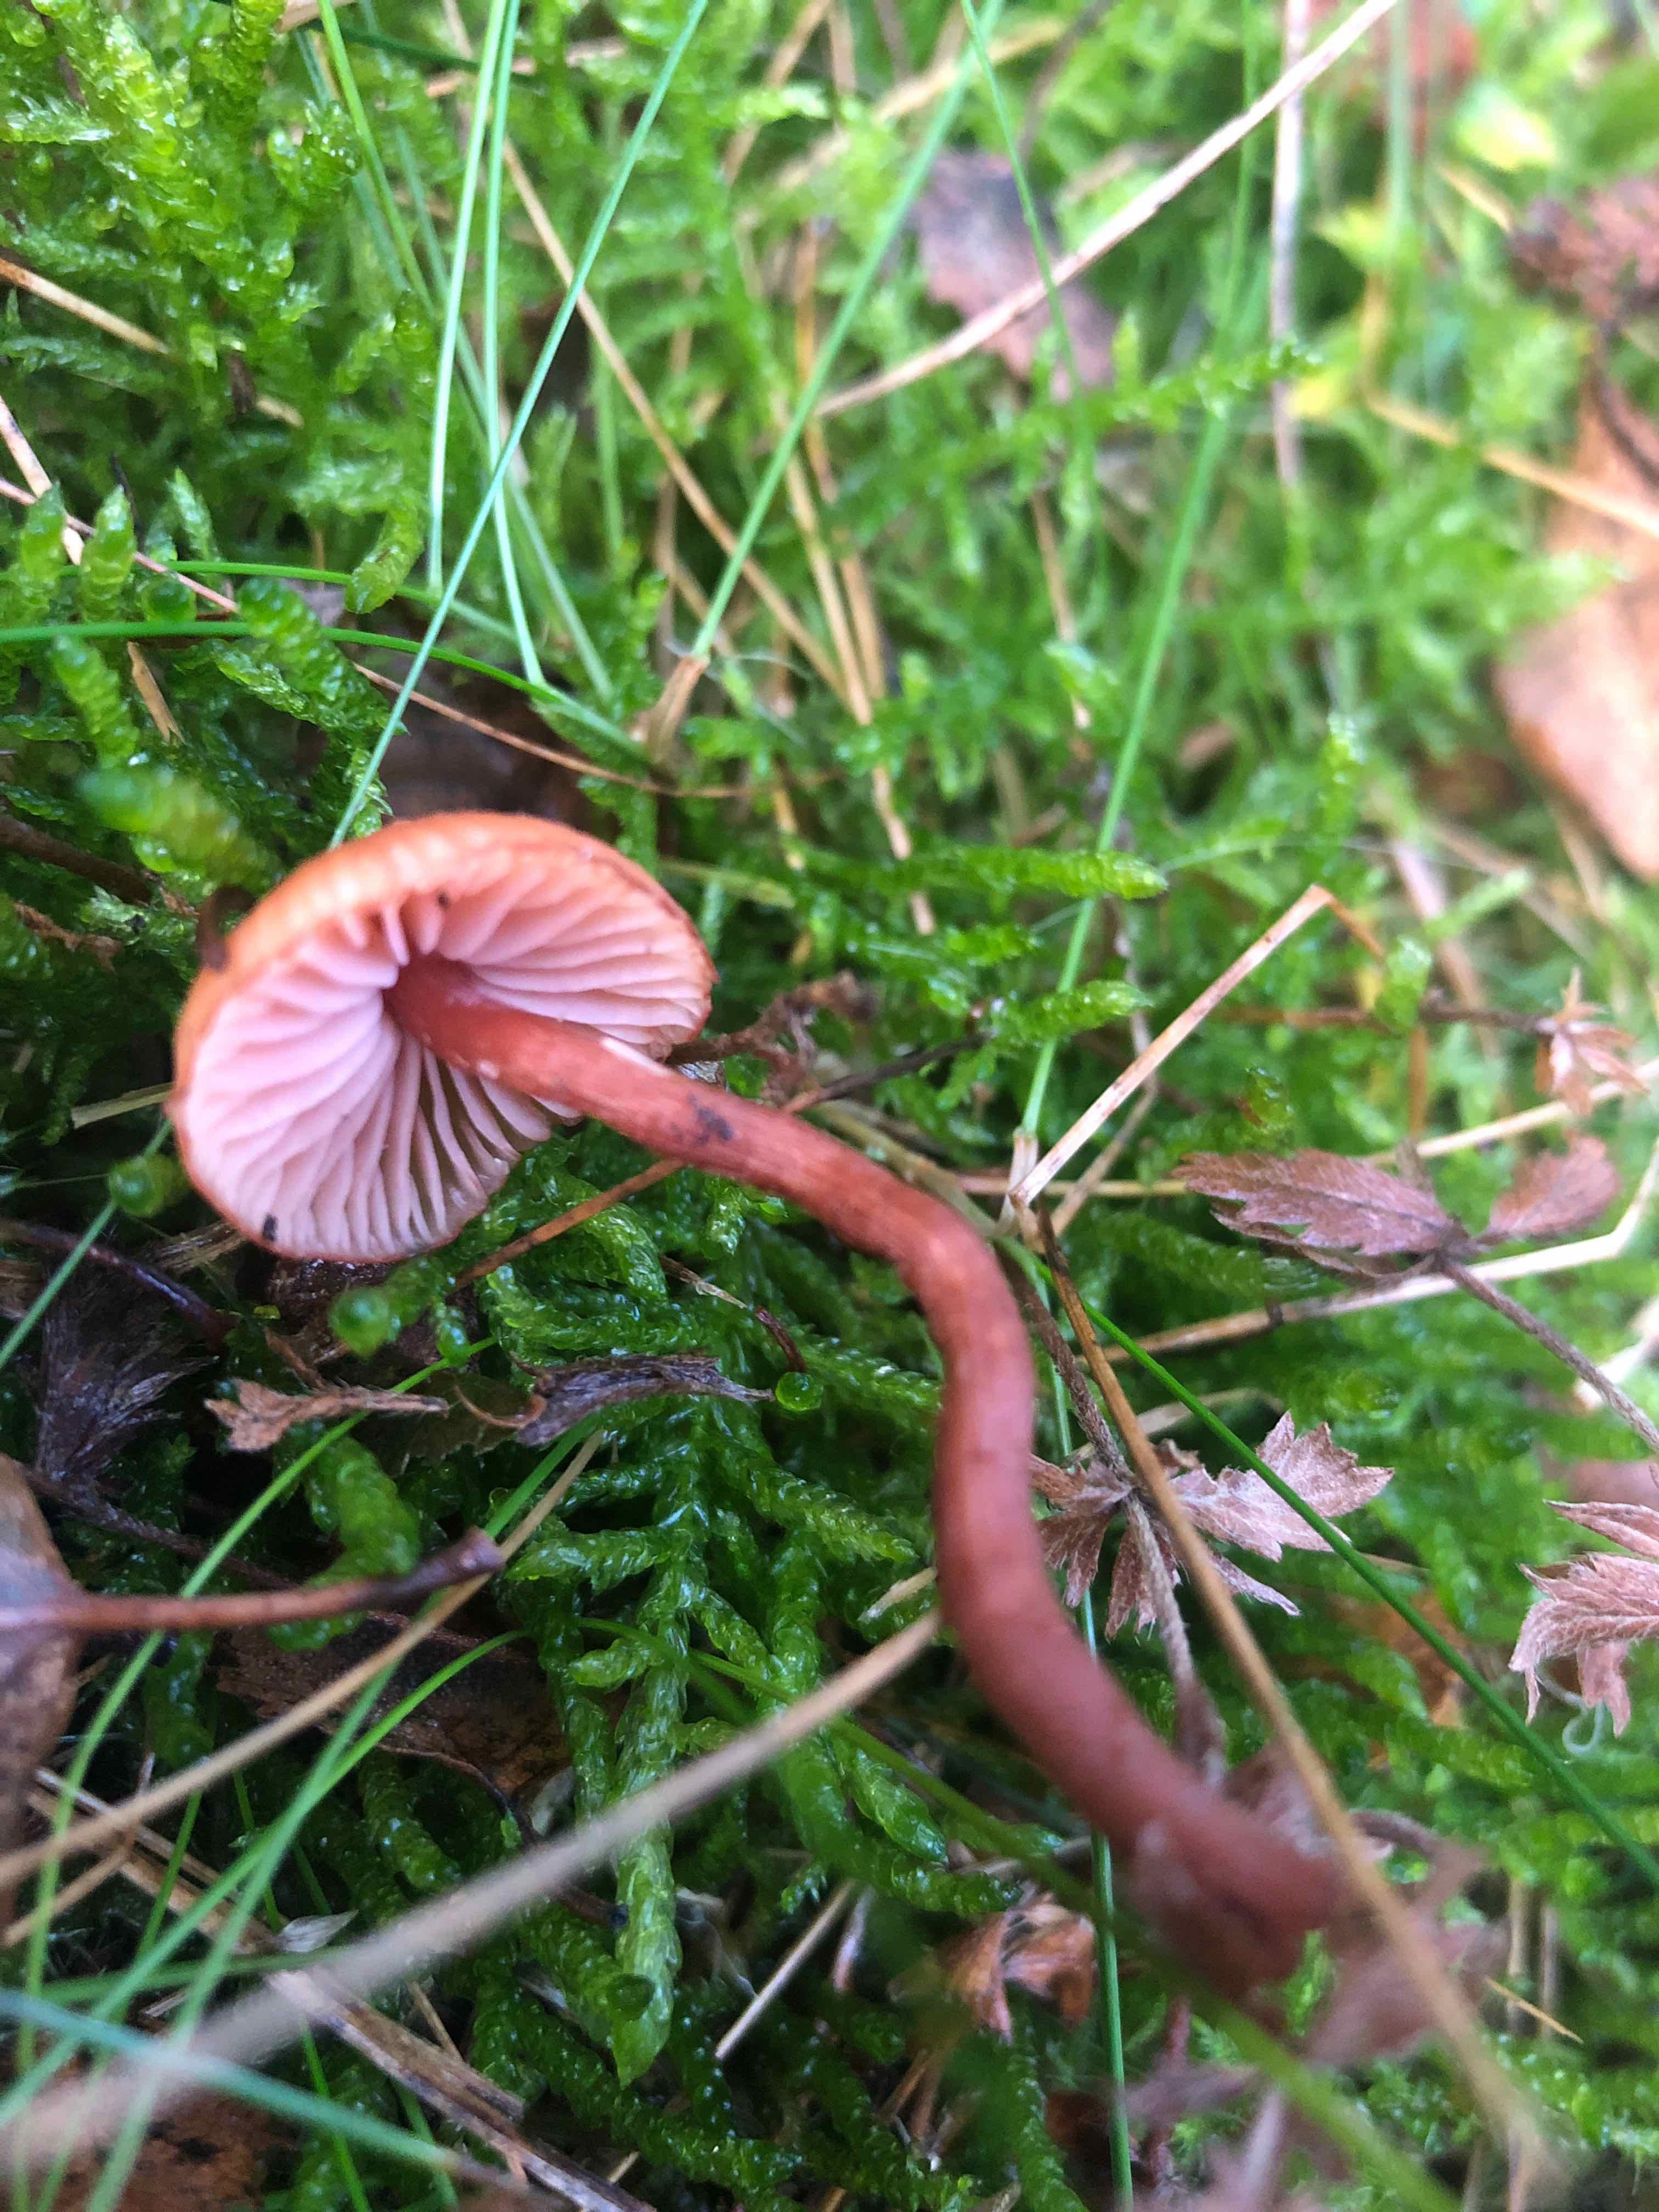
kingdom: Fungi
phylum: Basidiomycota
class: Agaricomycetes
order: Agaricales
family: Hydnangiaceae
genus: Laccaria
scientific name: Laccaria
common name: ametysthat
